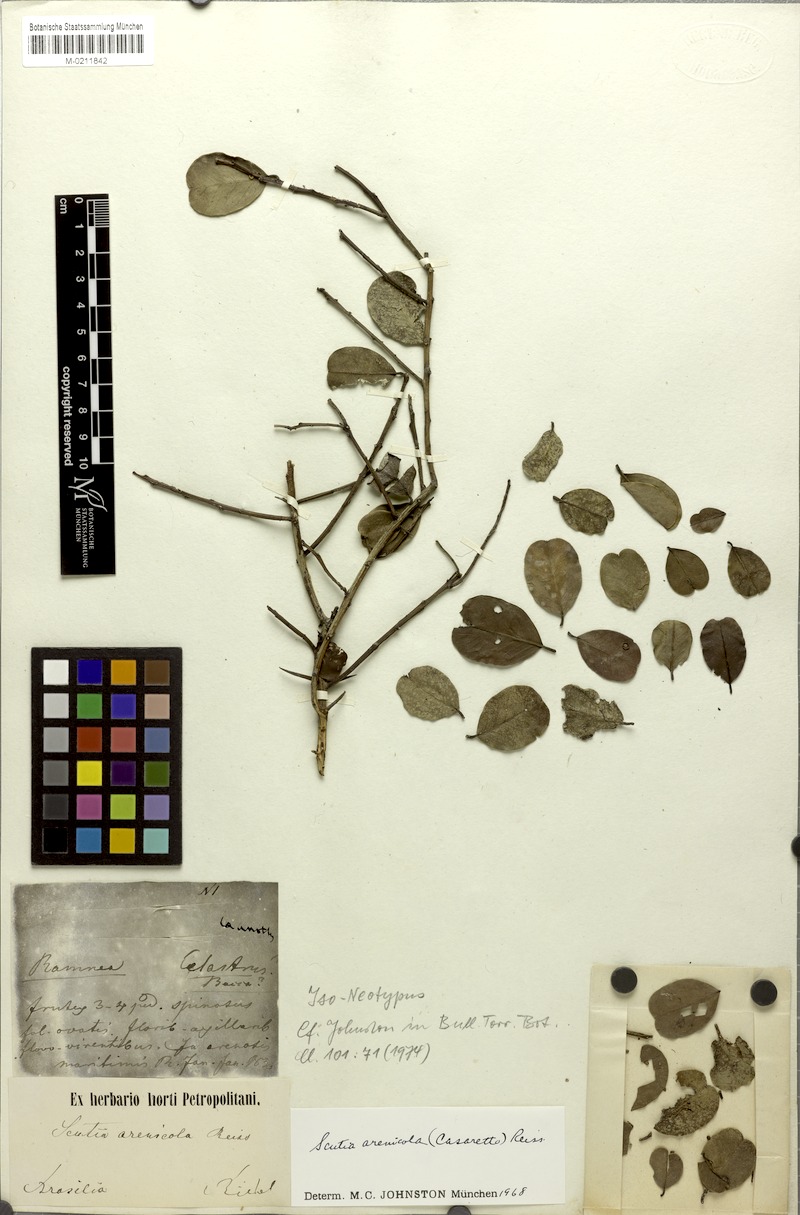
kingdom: Plantae
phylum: Tracheophyta
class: Magnoliopsida
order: Rosales
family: Rhamnaceae
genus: Scutia
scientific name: Scutia arenicola
